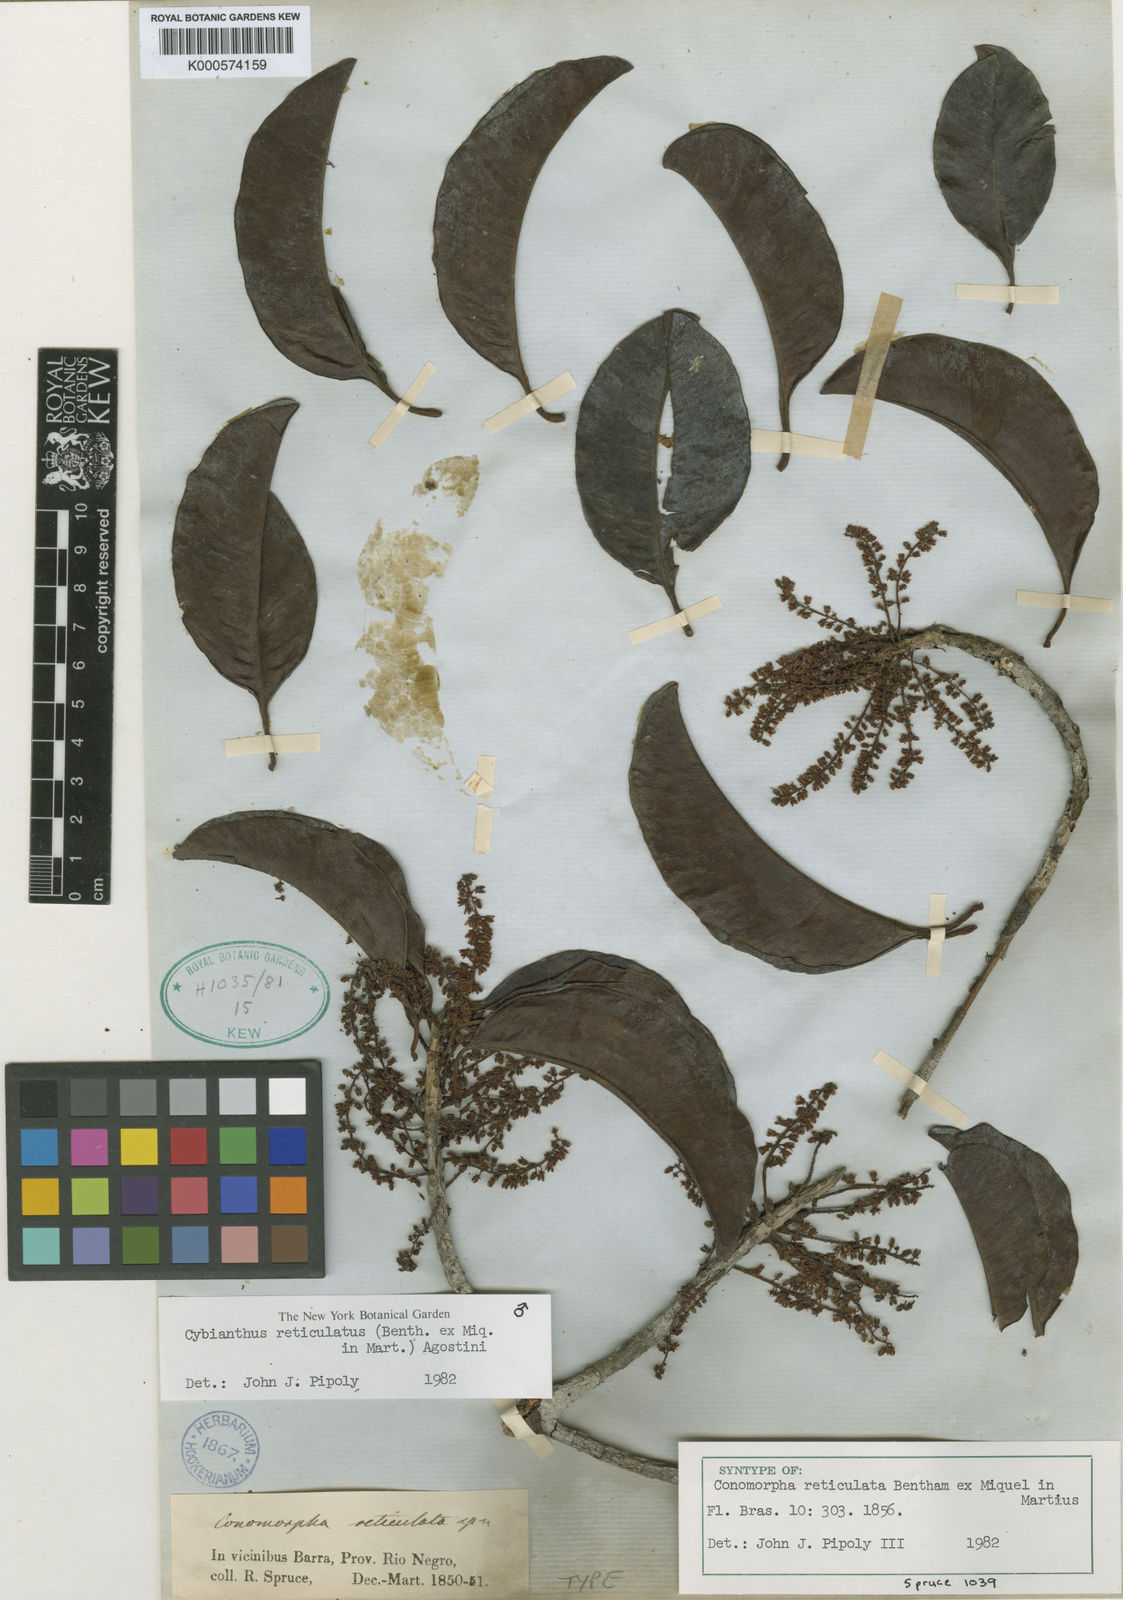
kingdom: Plantae
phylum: Tracheophyta
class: Magnoliopsida
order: Ericales
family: Primulaceae
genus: Cybianthus
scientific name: Cybianthus reticulatus
